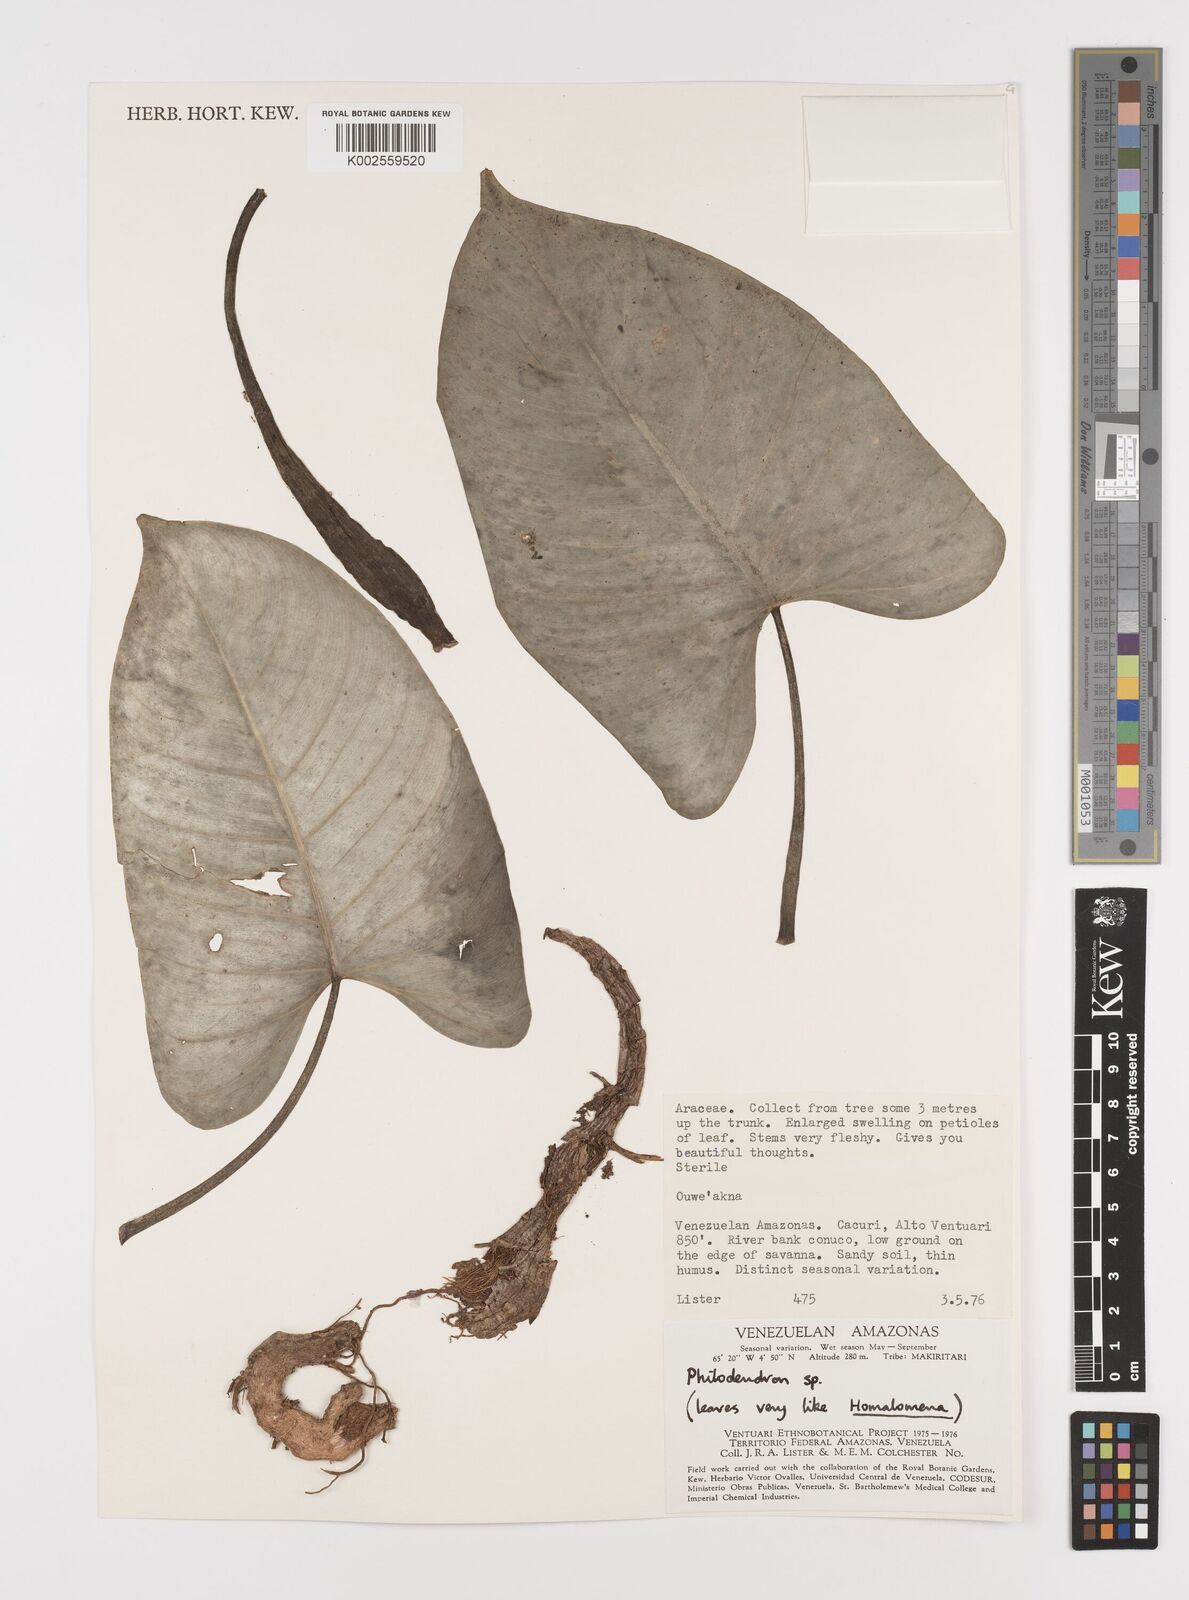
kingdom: Plantae
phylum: Tracheophyta
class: Liliopsida
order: Alismatales
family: Araceae
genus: Philodendron
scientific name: Philodendron
